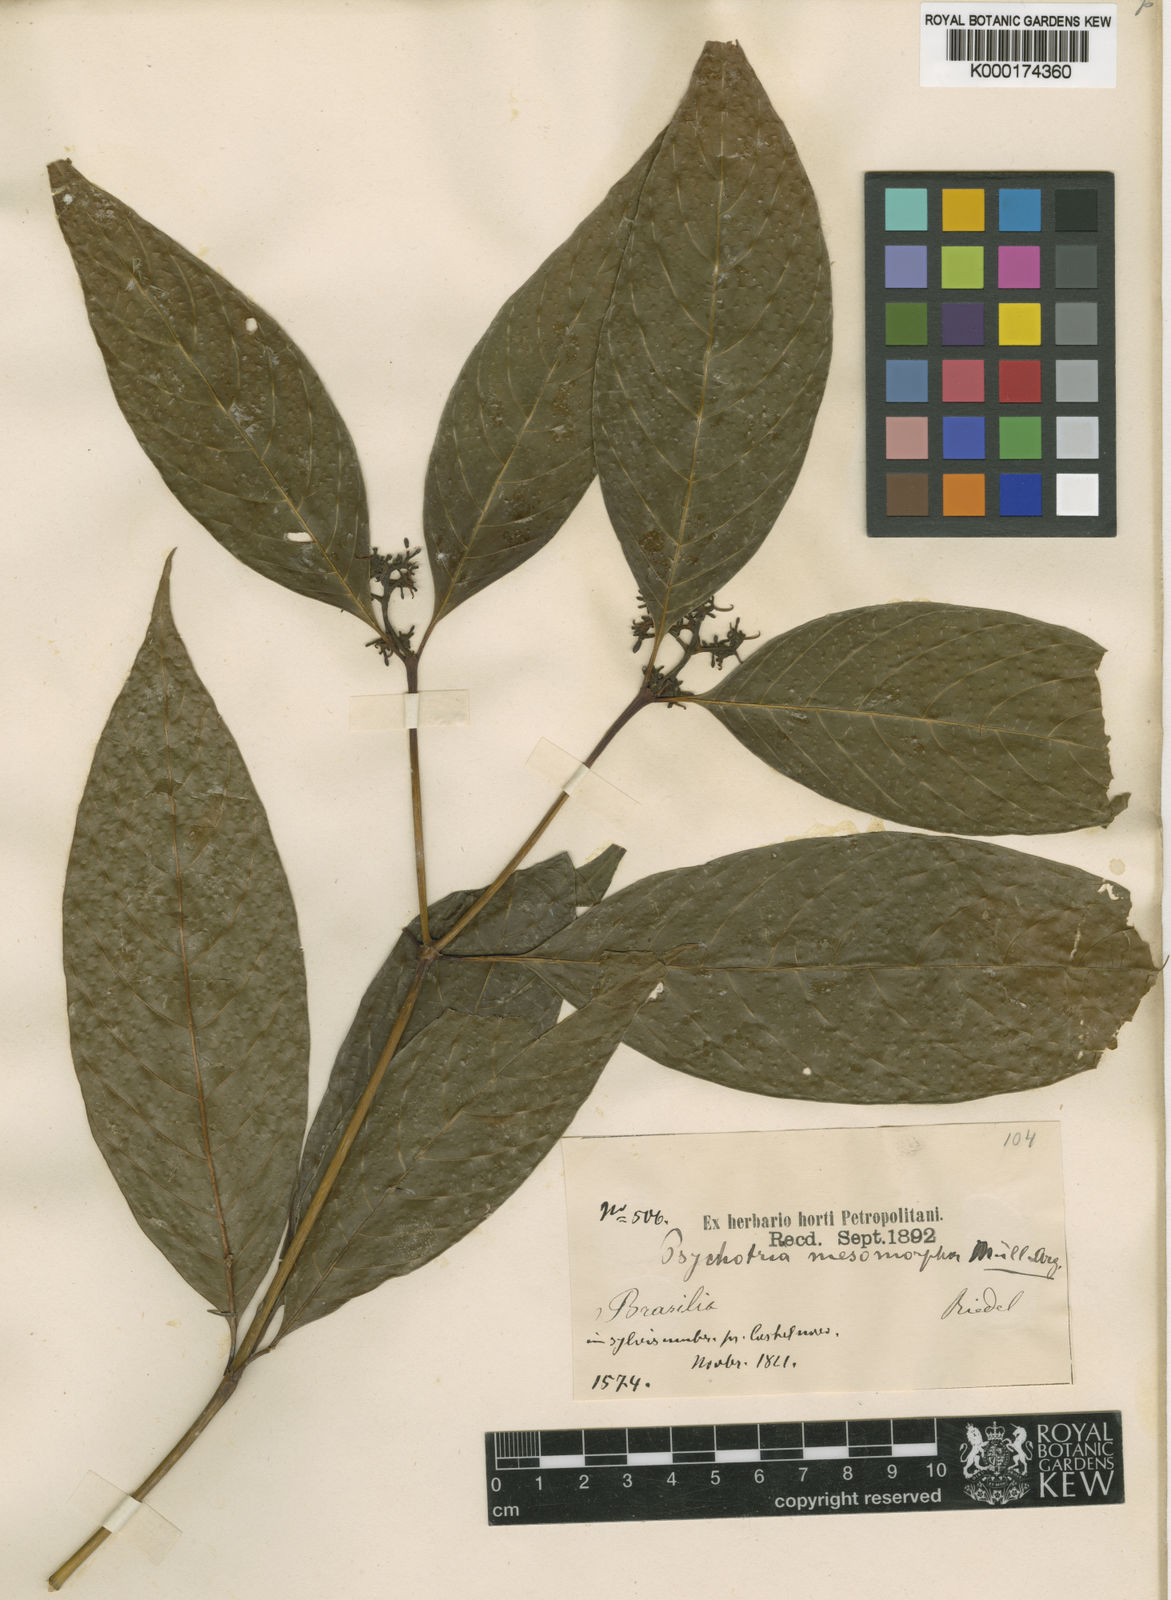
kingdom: Plantae
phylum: Tracheophyta
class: Magnoliopsida
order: Gentianales
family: Rubiaceae
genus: Psychotria
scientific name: Psychotria
